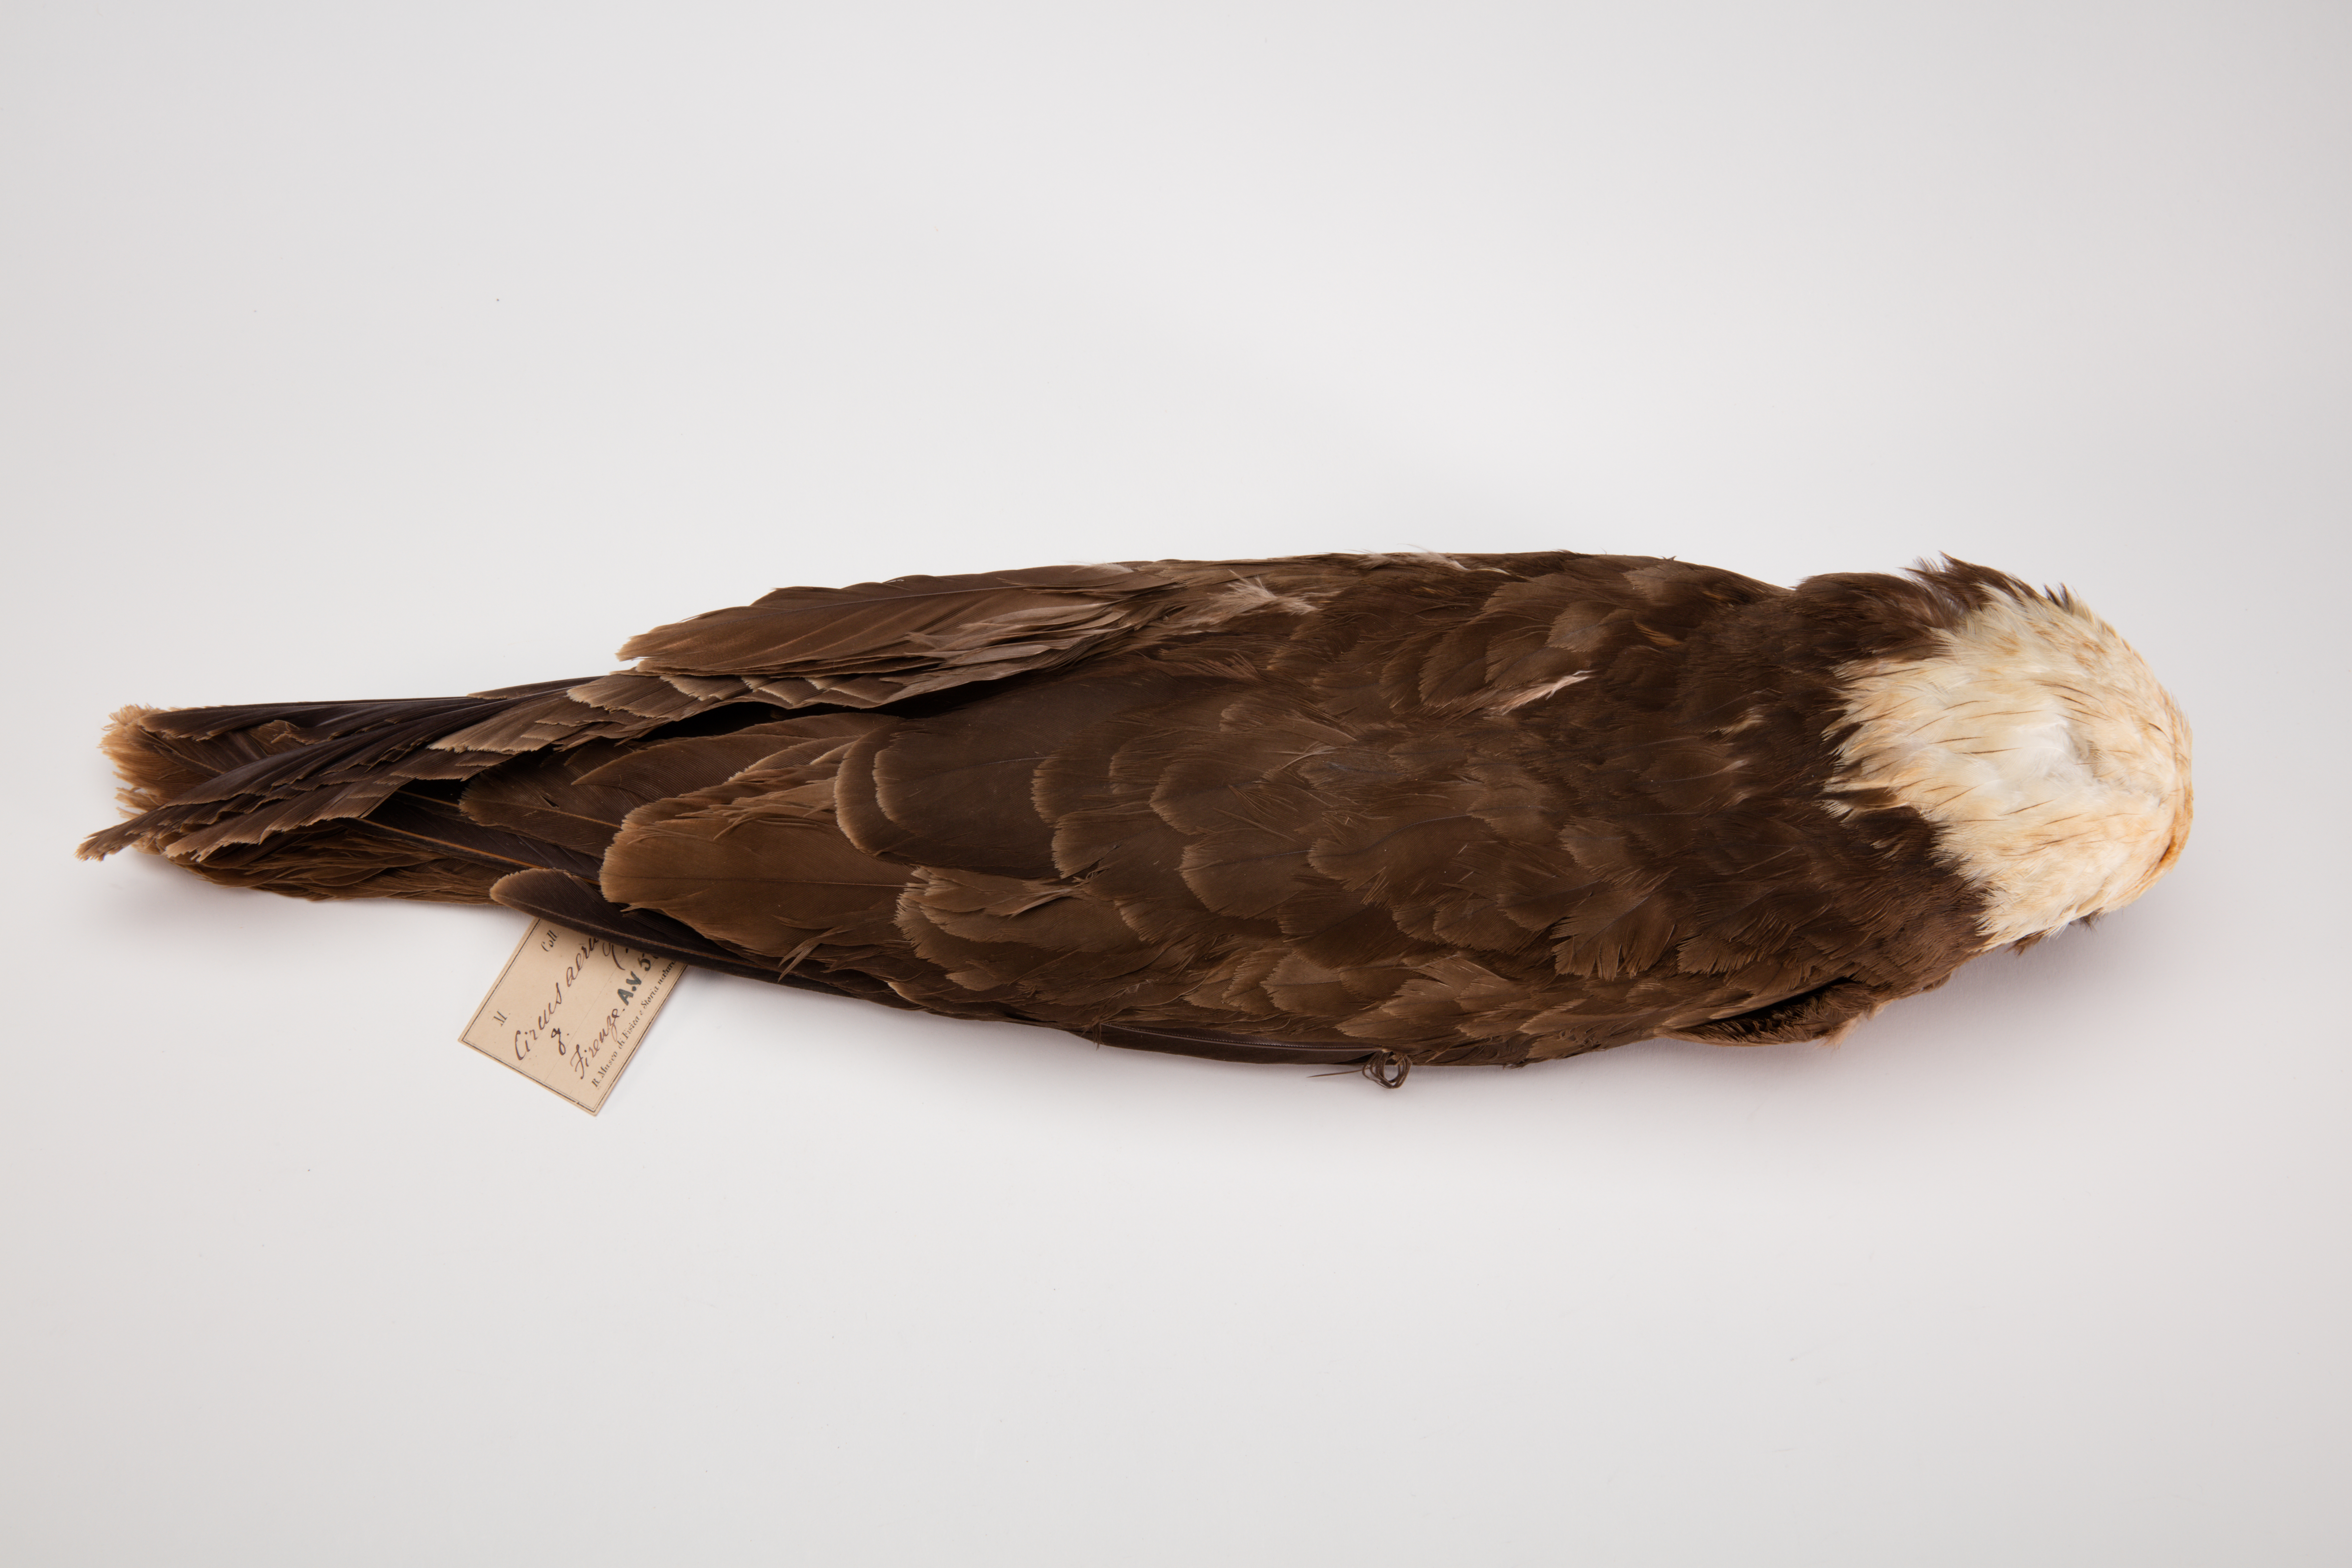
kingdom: Animalia
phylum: Chordata
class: Aves
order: Accipitriformes
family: Accipitridae
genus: Circus
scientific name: Circus aeruginosus
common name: Western marsh harrier
